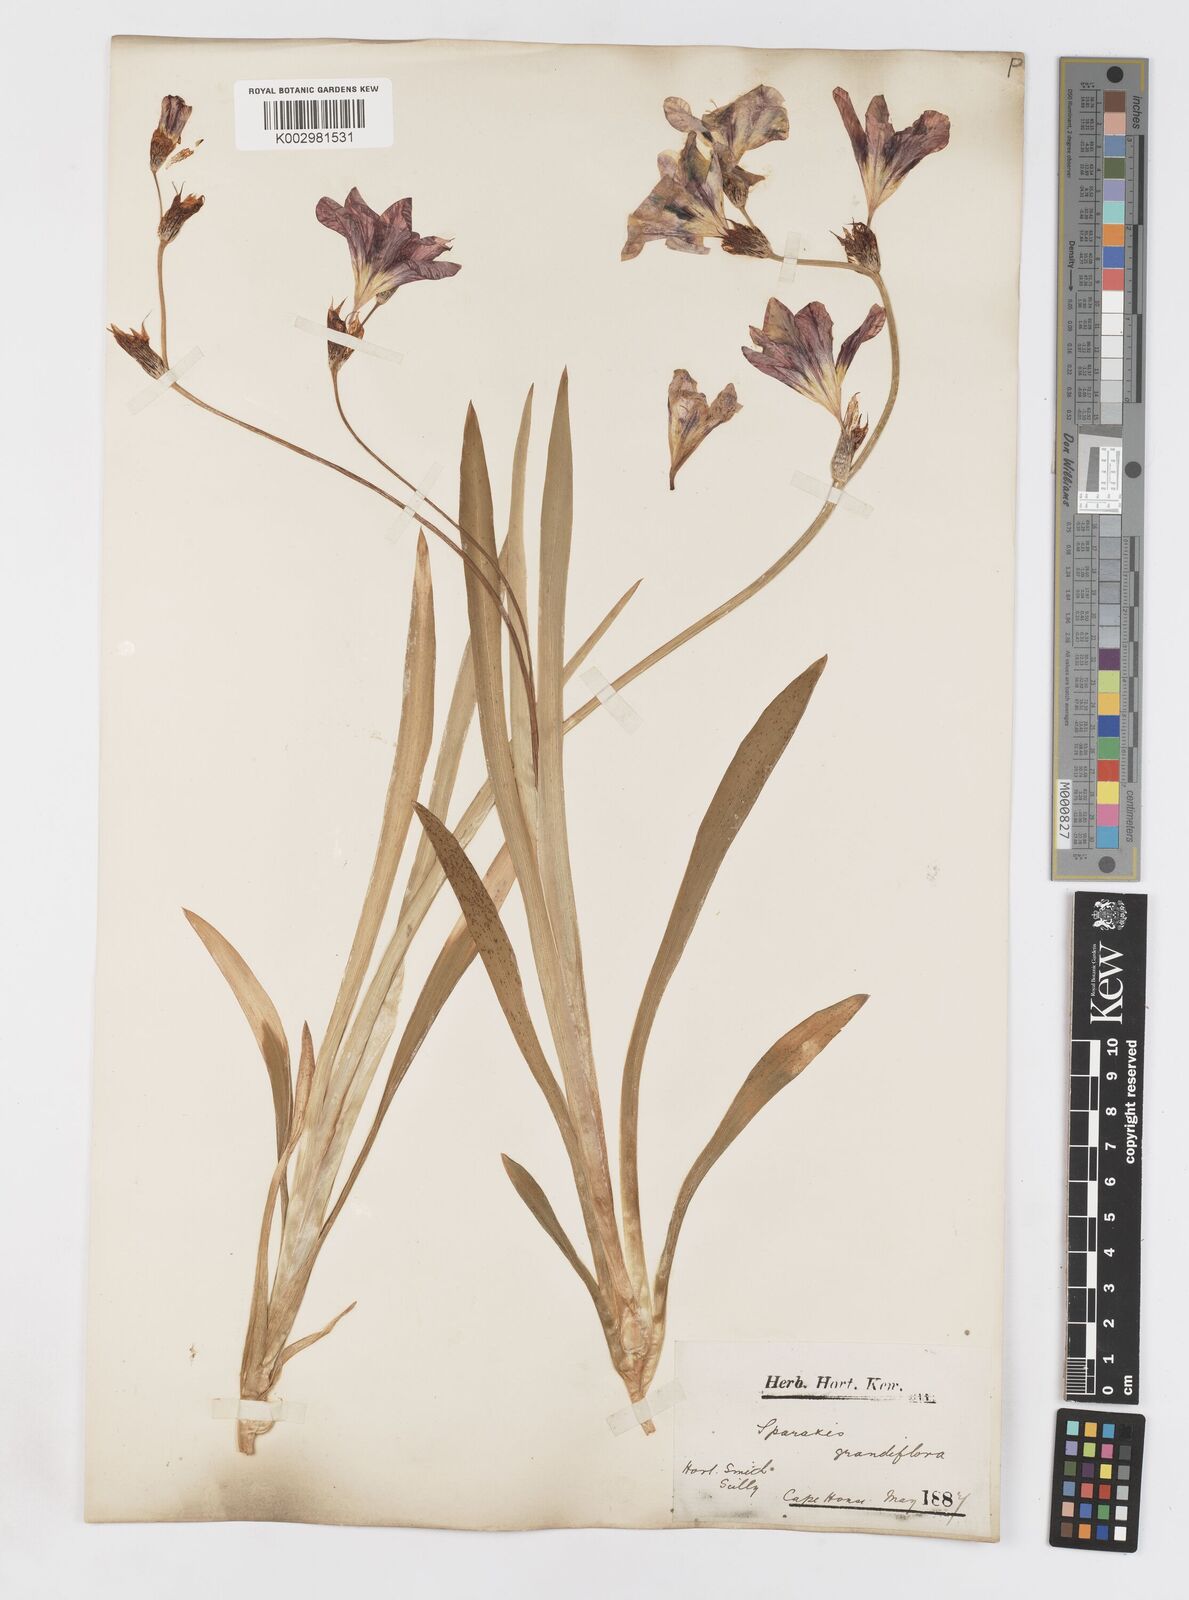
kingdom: Plantae
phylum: Tracheophyta
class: Liliopsida
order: Asparagales
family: Iridaceae
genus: Sparaxis
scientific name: Sparaxis
